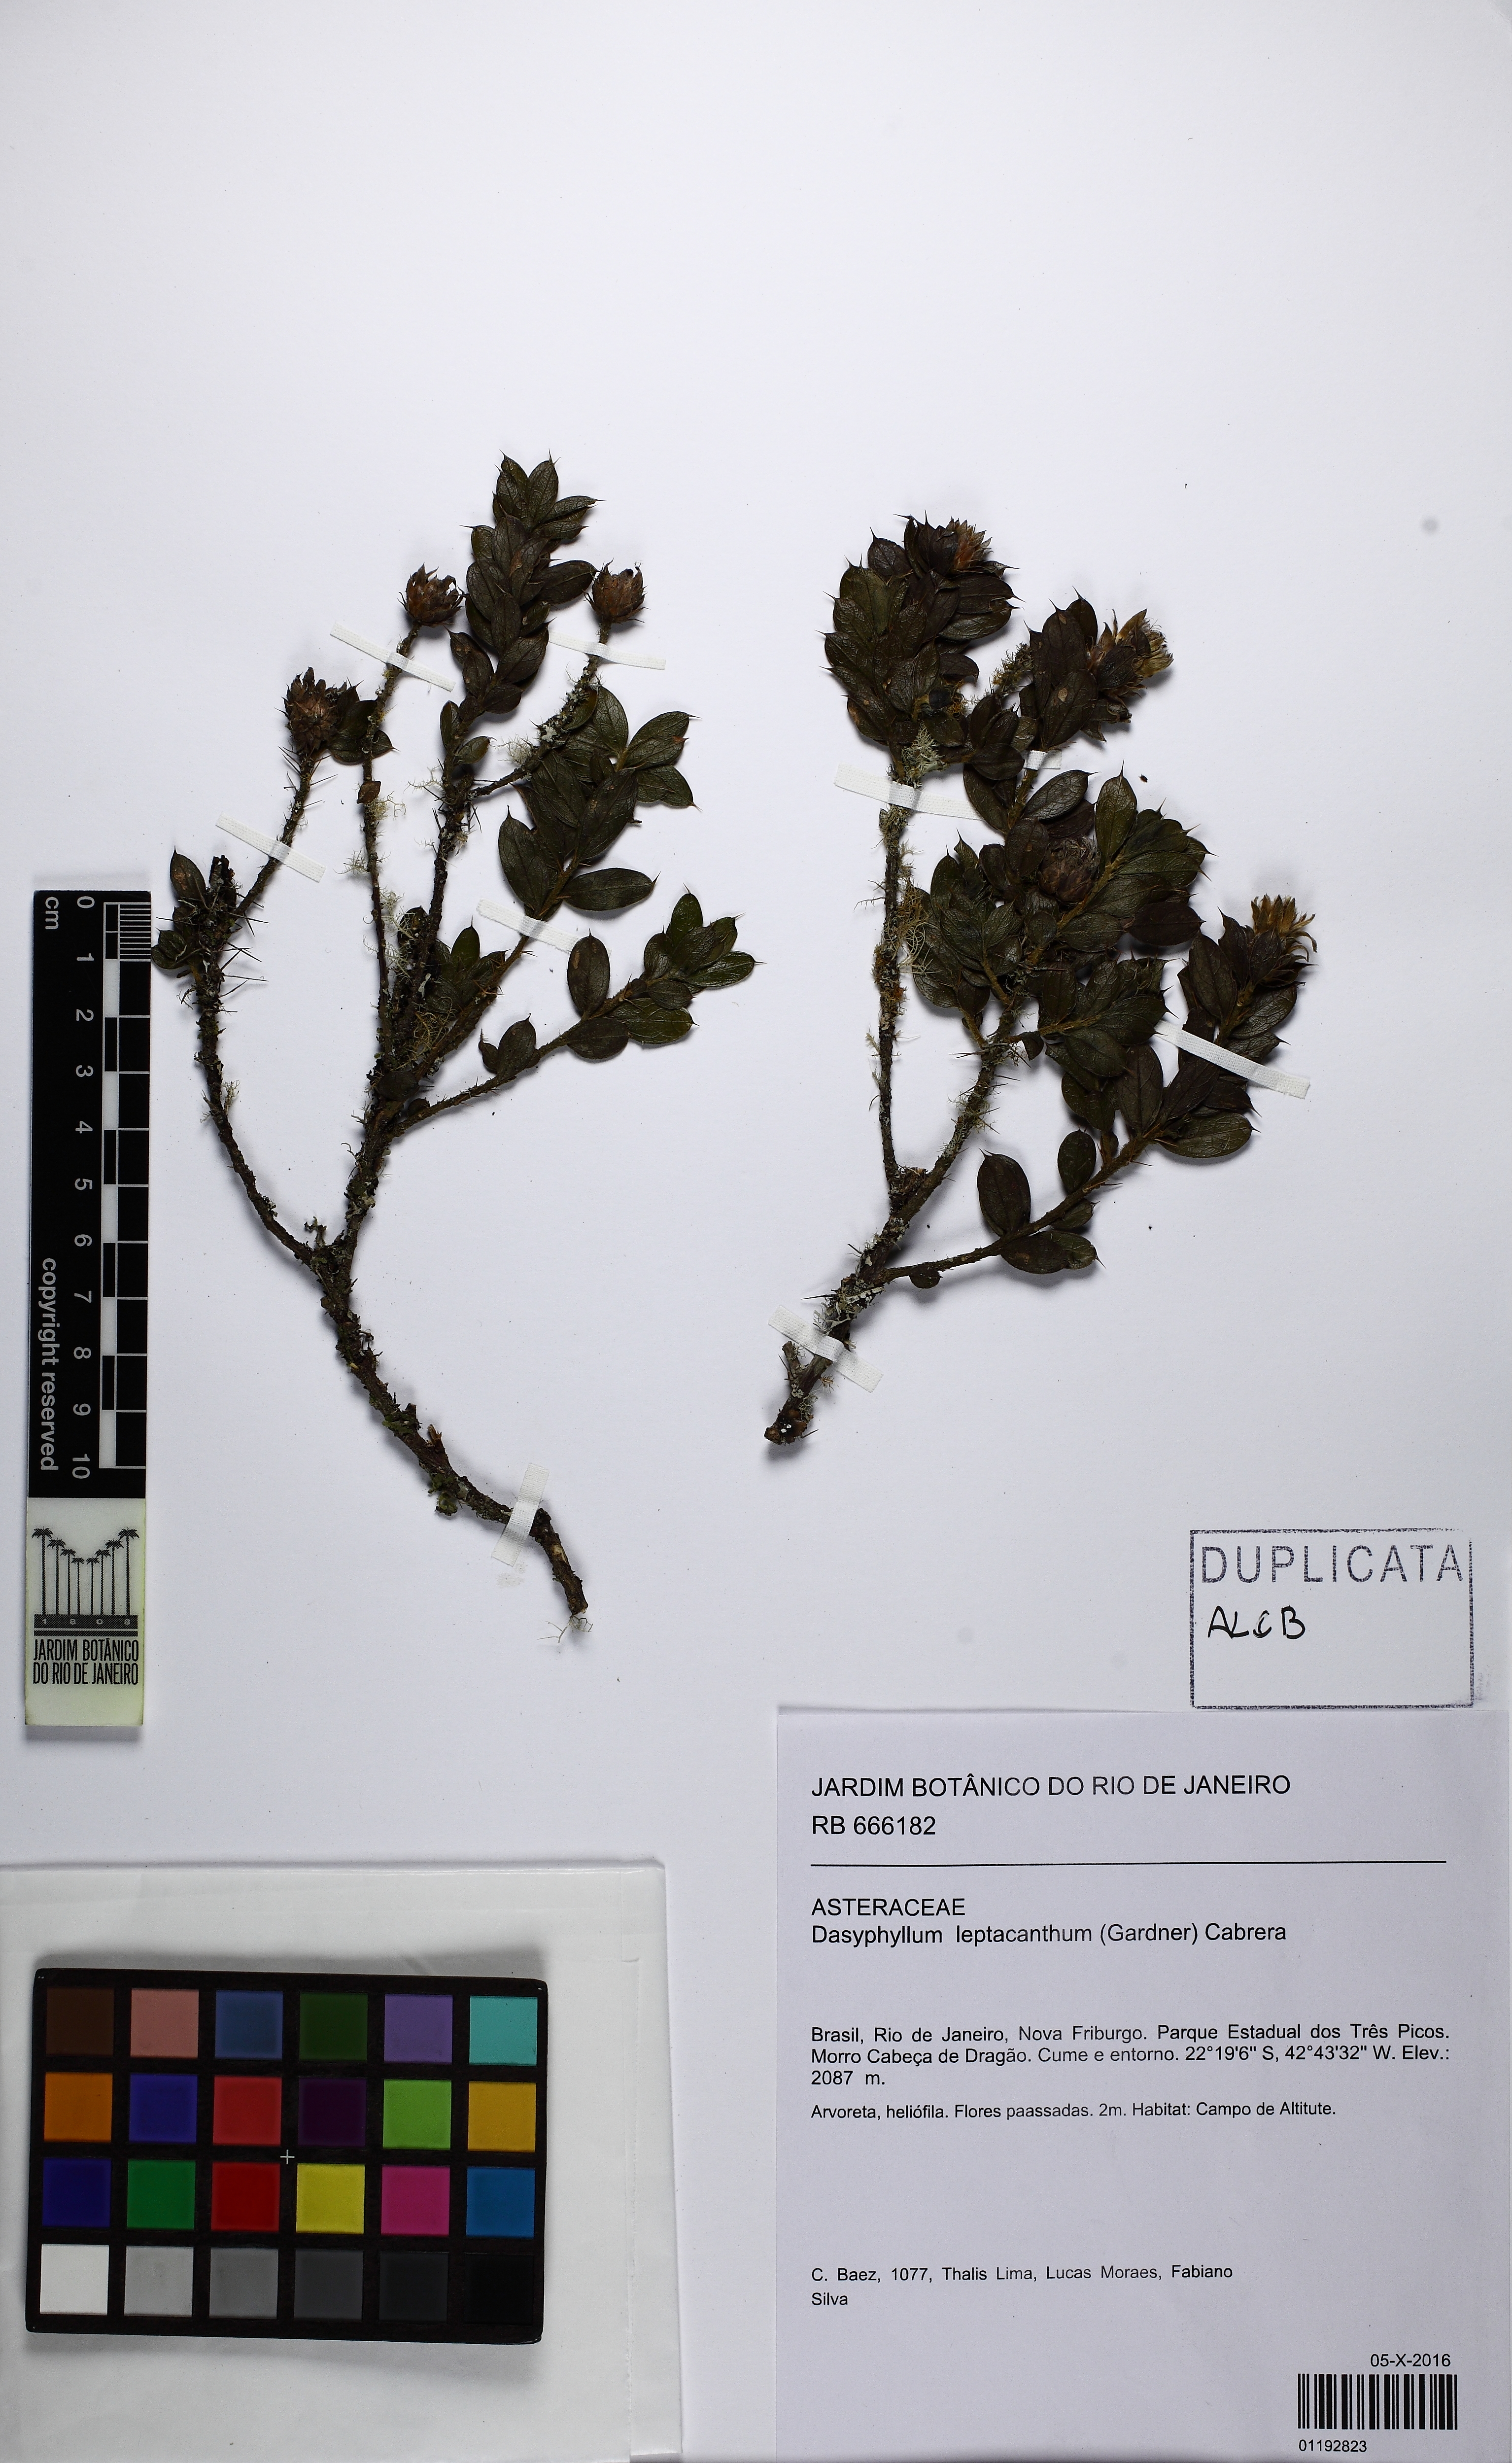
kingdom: Plantae
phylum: Tracheophyta
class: Magnoliopsida
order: Asterales
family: Asteraceae
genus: Dasyphyllum
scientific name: Dasyphyllum leptacanthum
